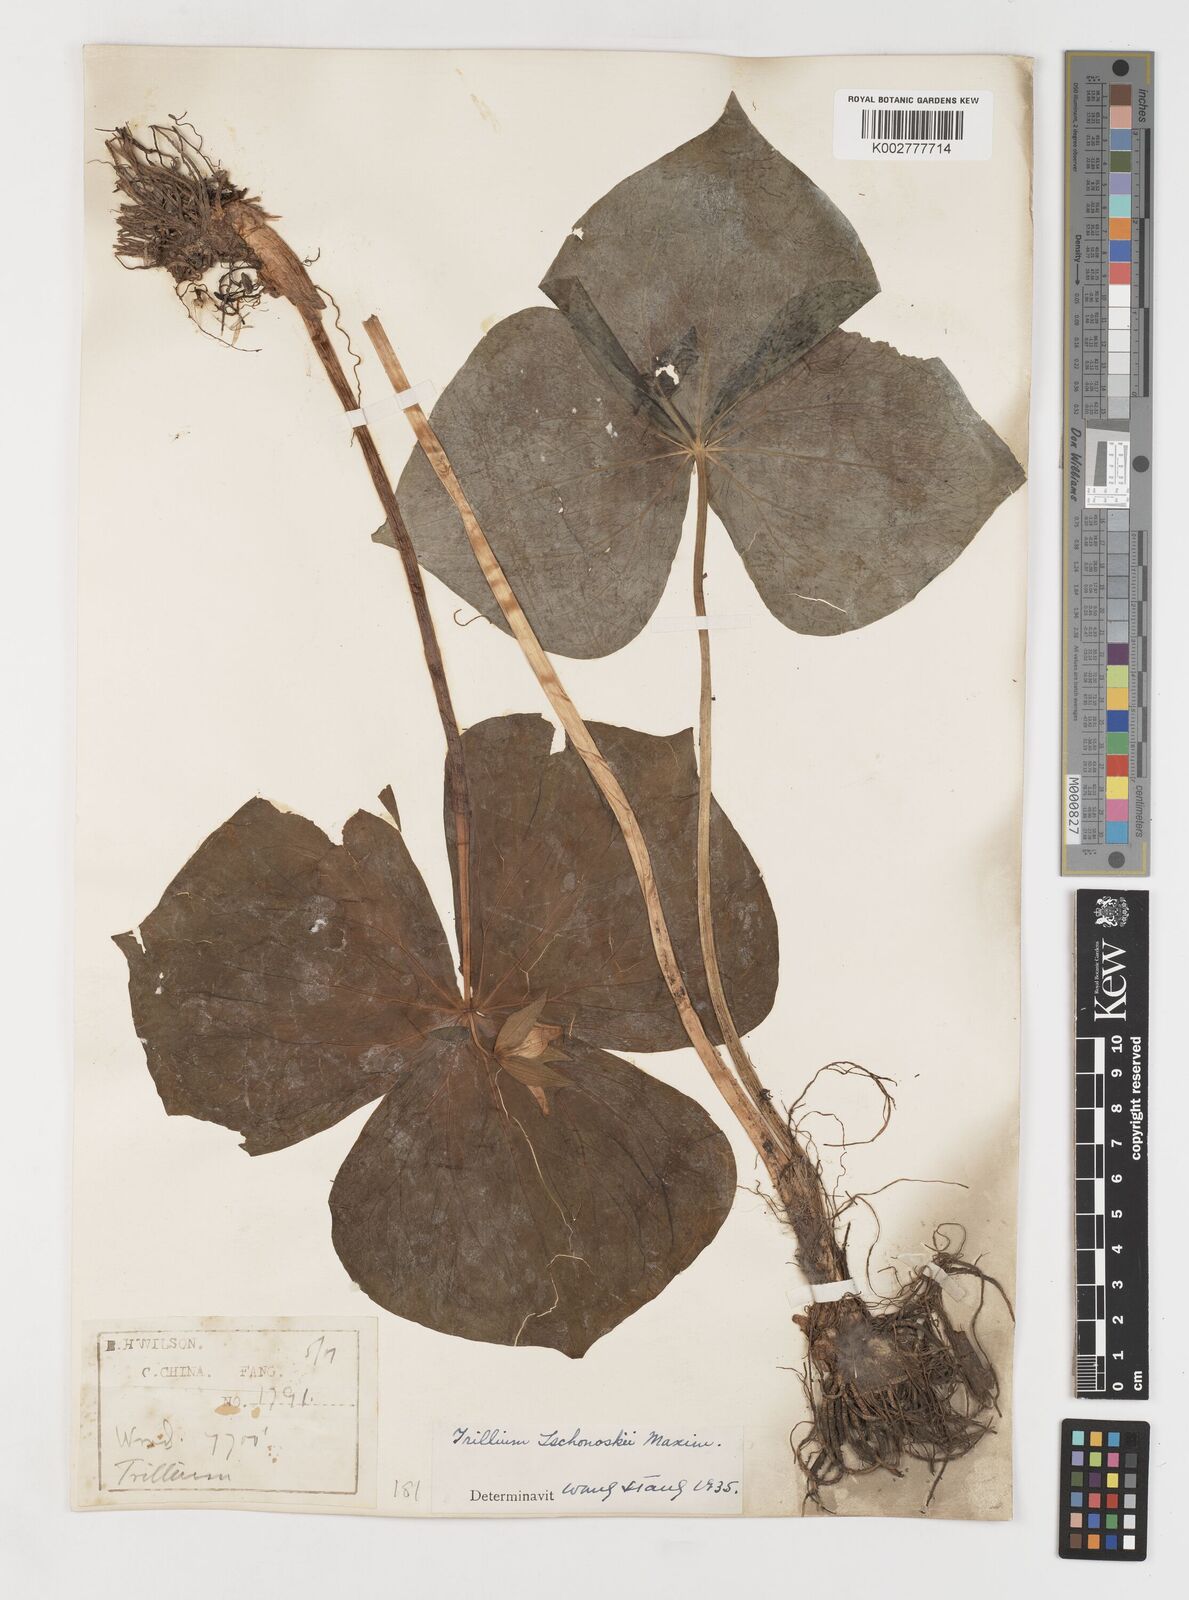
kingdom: Plantae
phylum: Tracheophyta
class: Liliopsida
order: Liliales
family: Melanthiaceae
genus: Trillium
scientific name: Trillium tschonoskii
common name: A pearl on head
